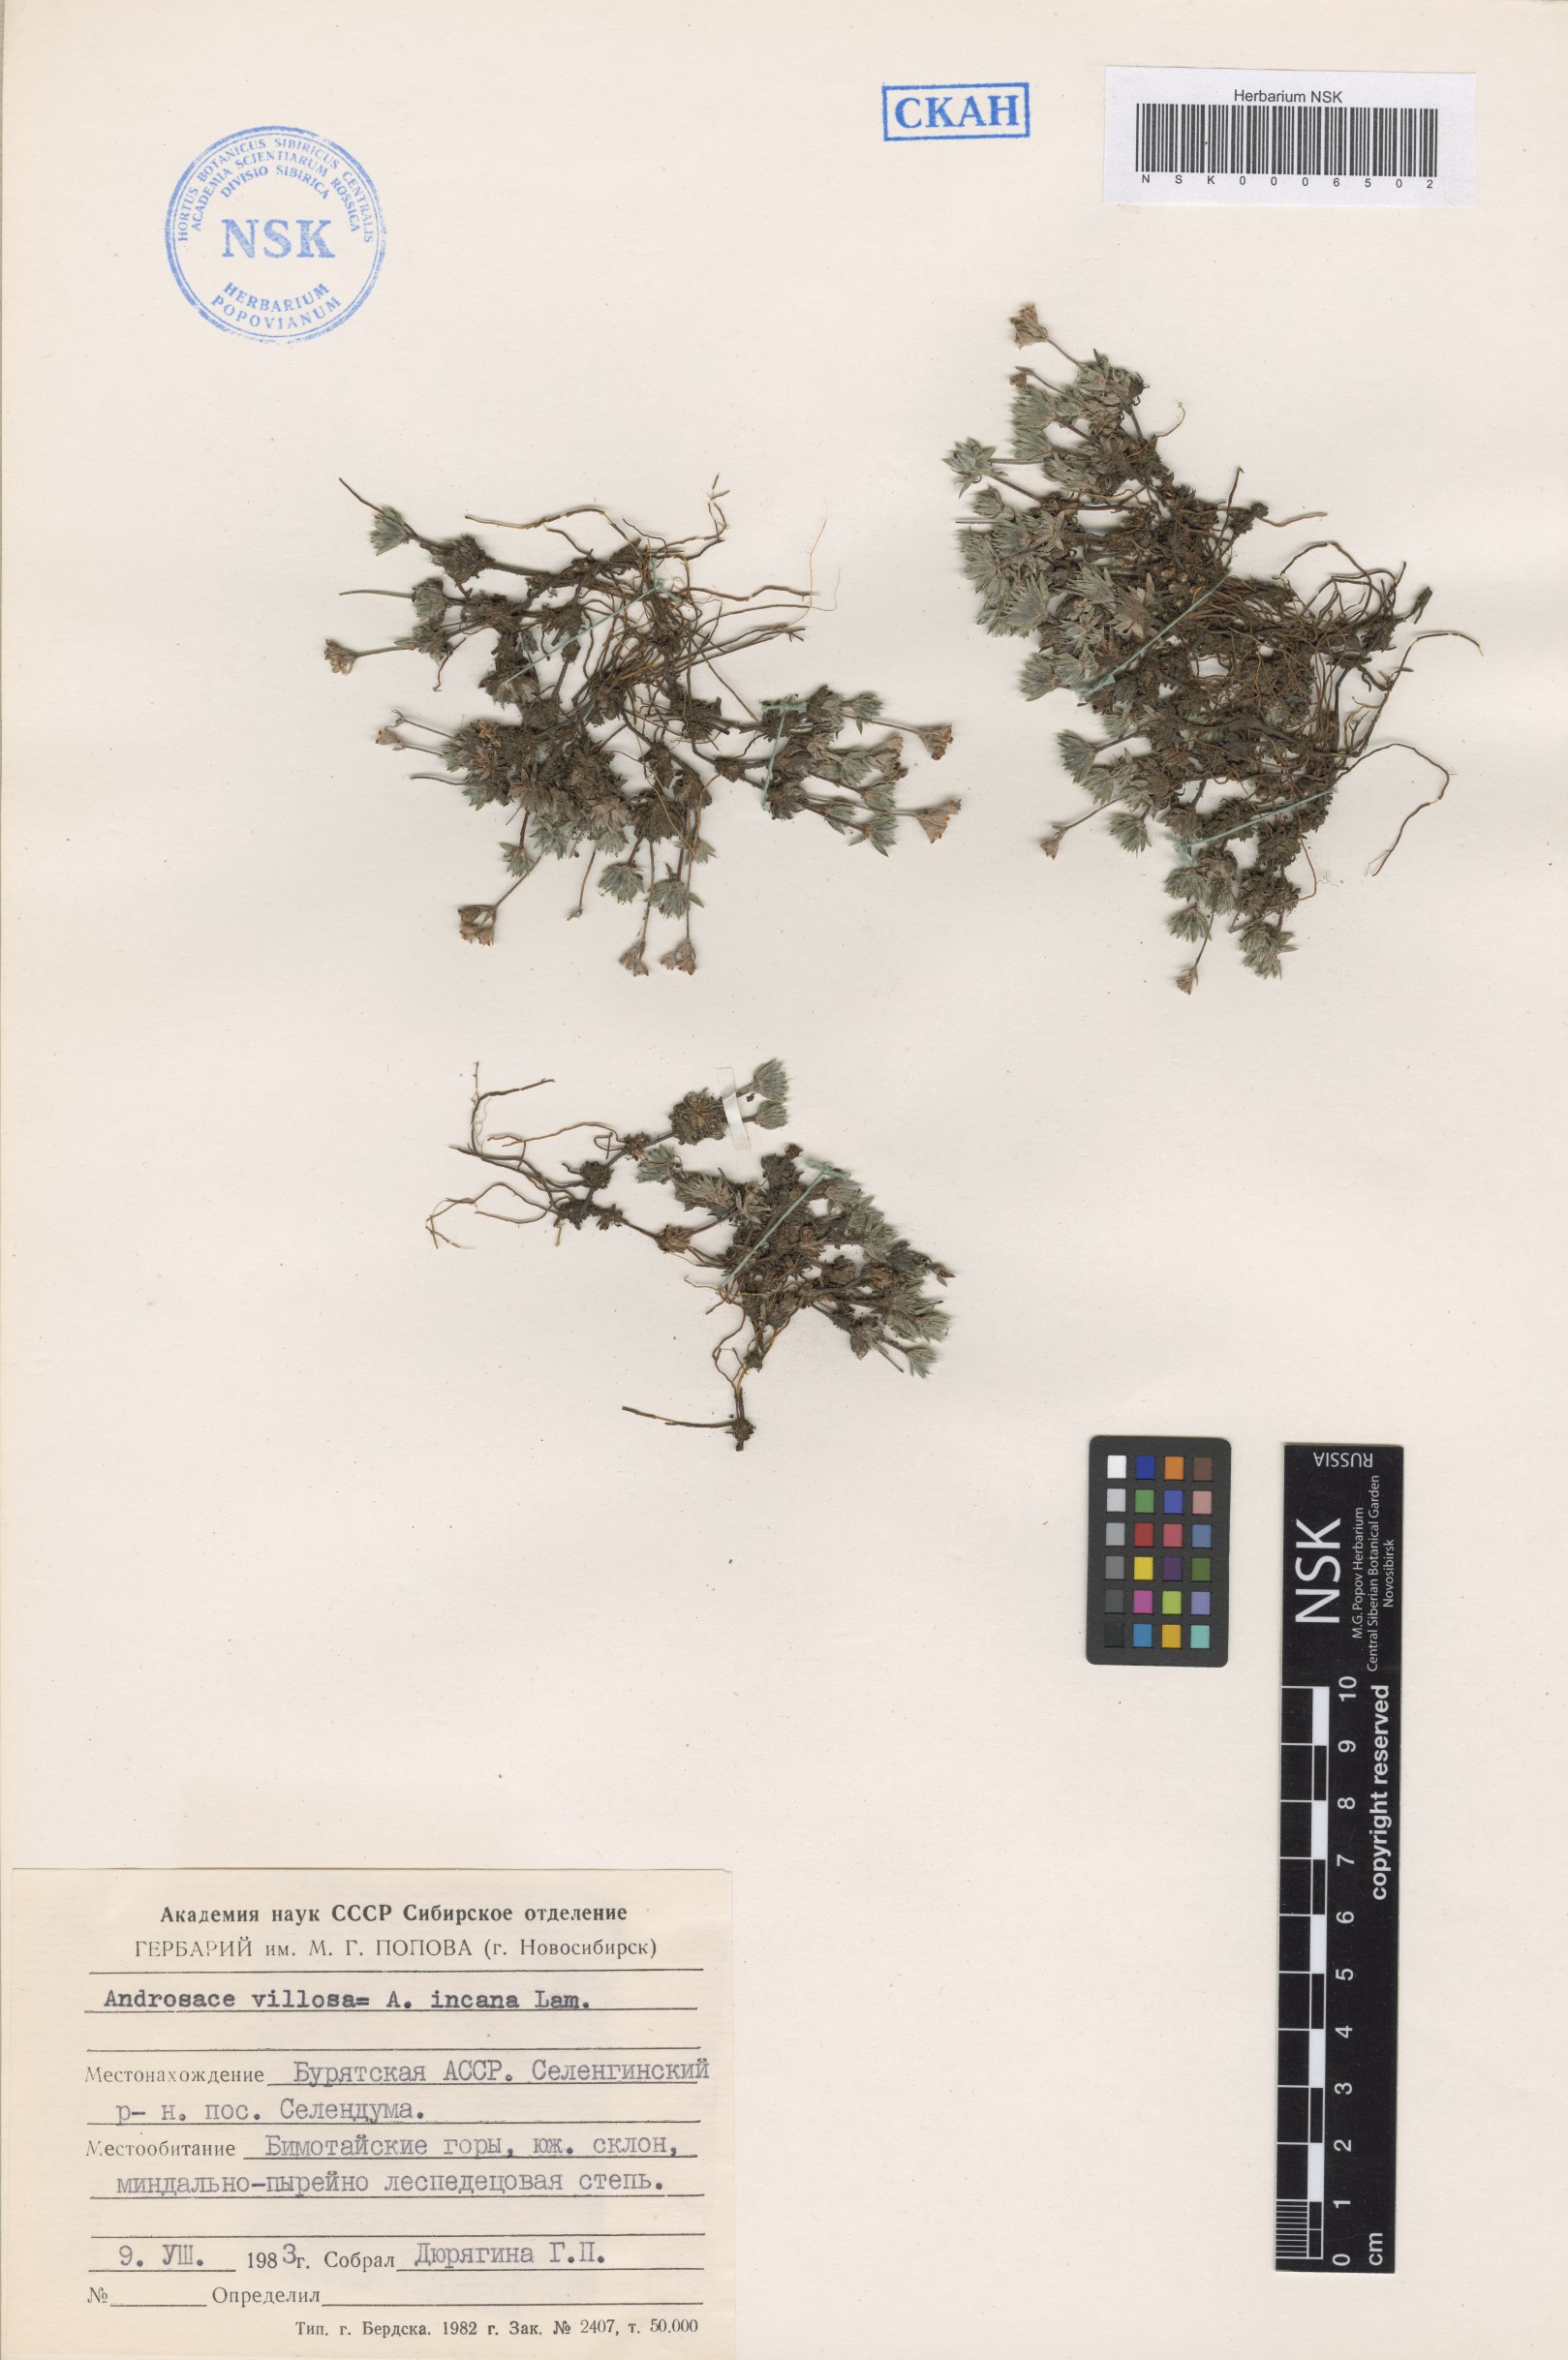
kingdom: Plantae
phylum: Tracheophyta
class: Magnoliopsida
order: Ericales
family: Primulaceae
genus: Androsace
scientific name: Androsace incana
